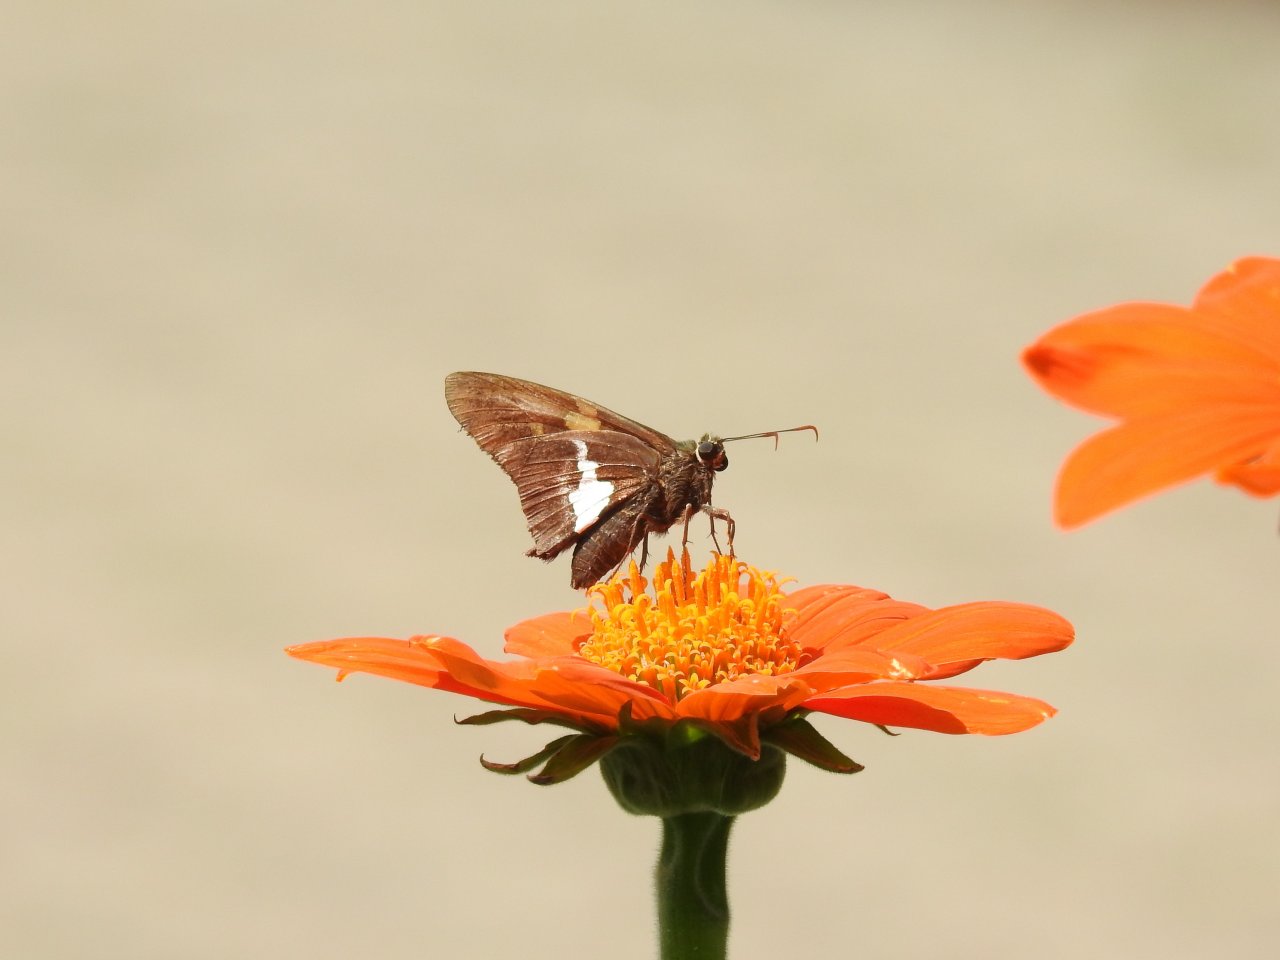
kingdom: Animalia
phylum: Arthropoda
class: Insecta
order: Lepidoptera
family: Hesperiidae
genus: Epargyreus
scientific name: Epargyreus clarus
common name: Silver-spotted Skipper
